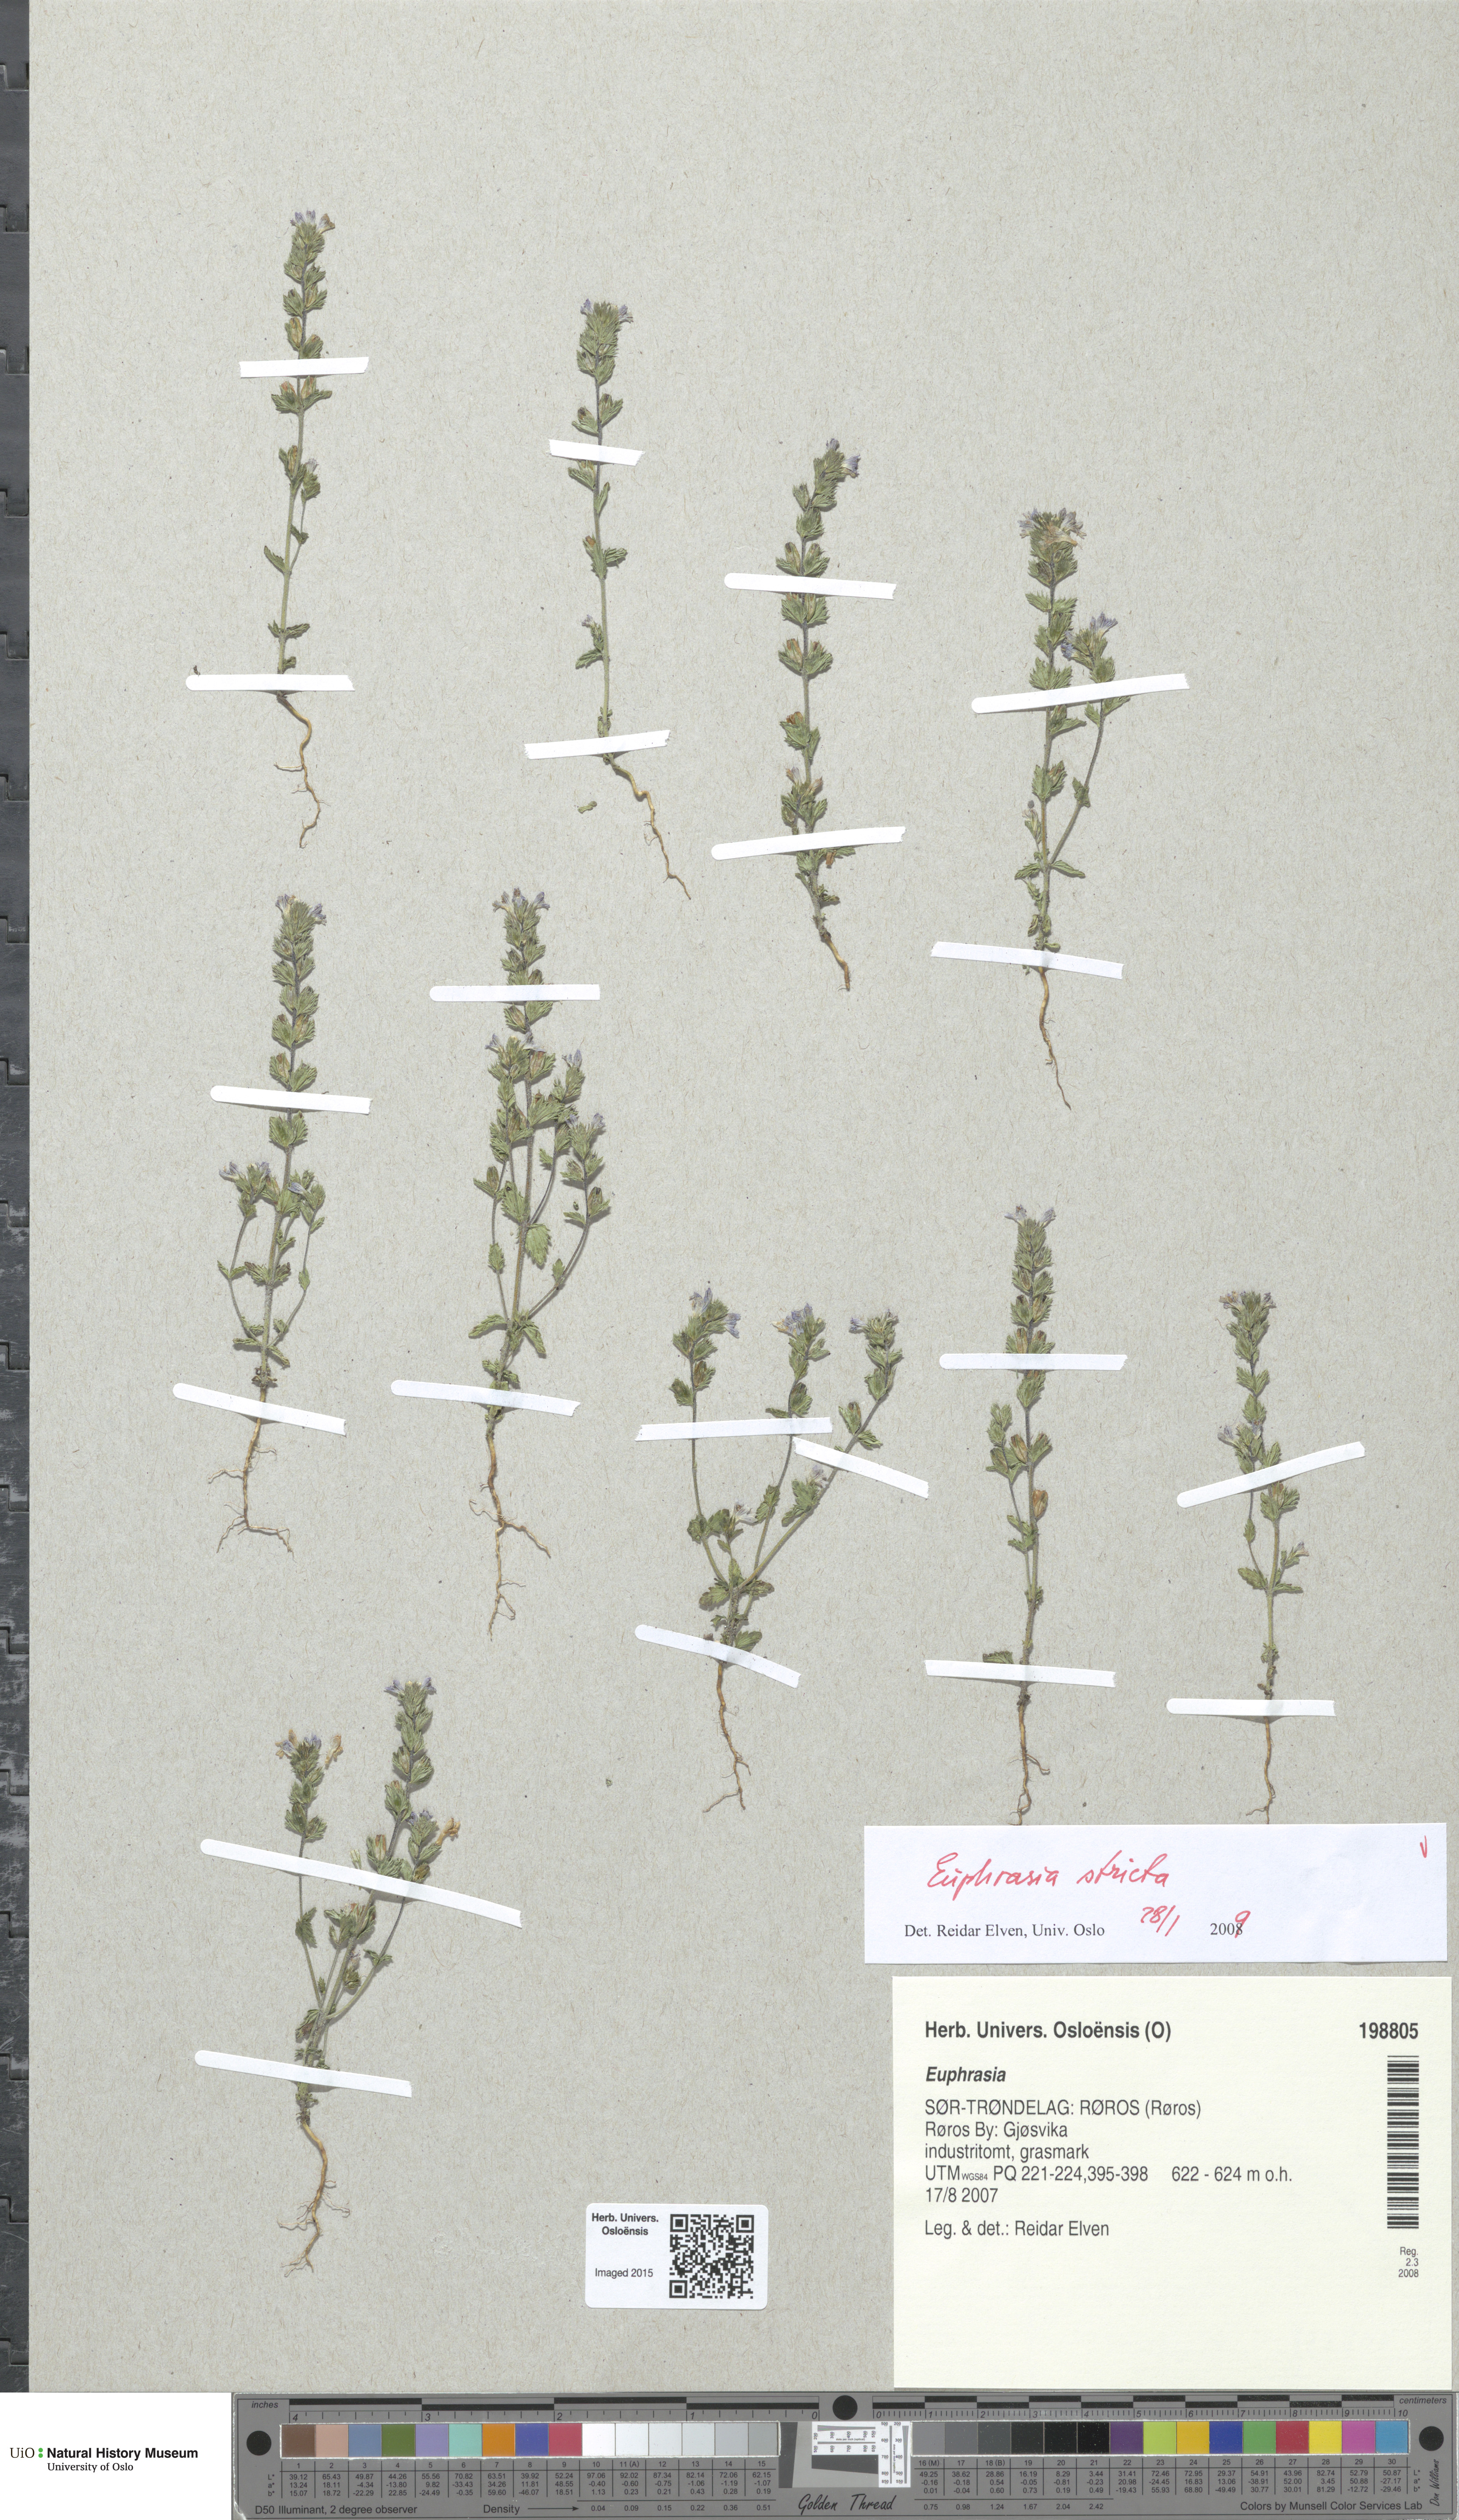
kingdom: Plantae
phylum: Tracheophyta
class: Magnoliopsida
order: Lamiales
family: Orobanchaceae
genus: Euphrasia
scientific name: Euphrasia stricta
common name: Drug eyebright
